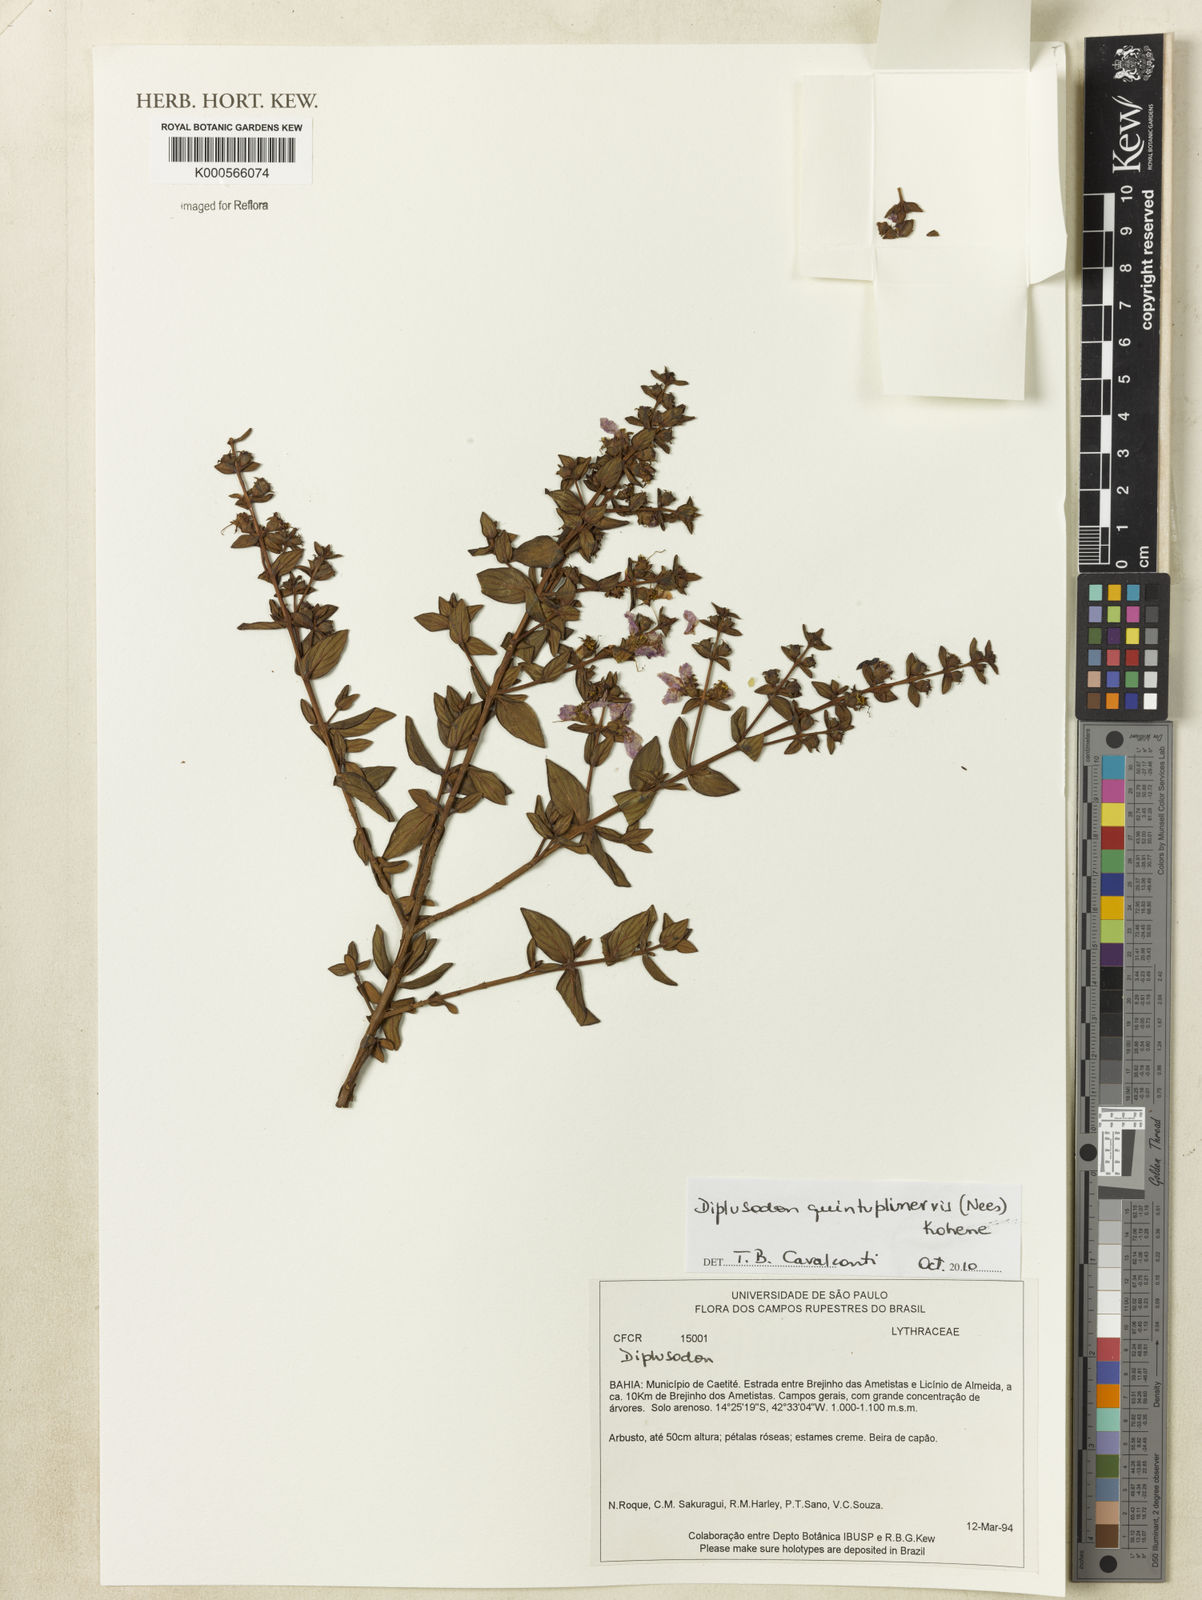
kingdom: Plantae
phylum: Tracheophyta
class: Magnoliopsida
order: Myrtales
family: Lythraceae
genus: Diplusodon
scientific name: Diplusodon
